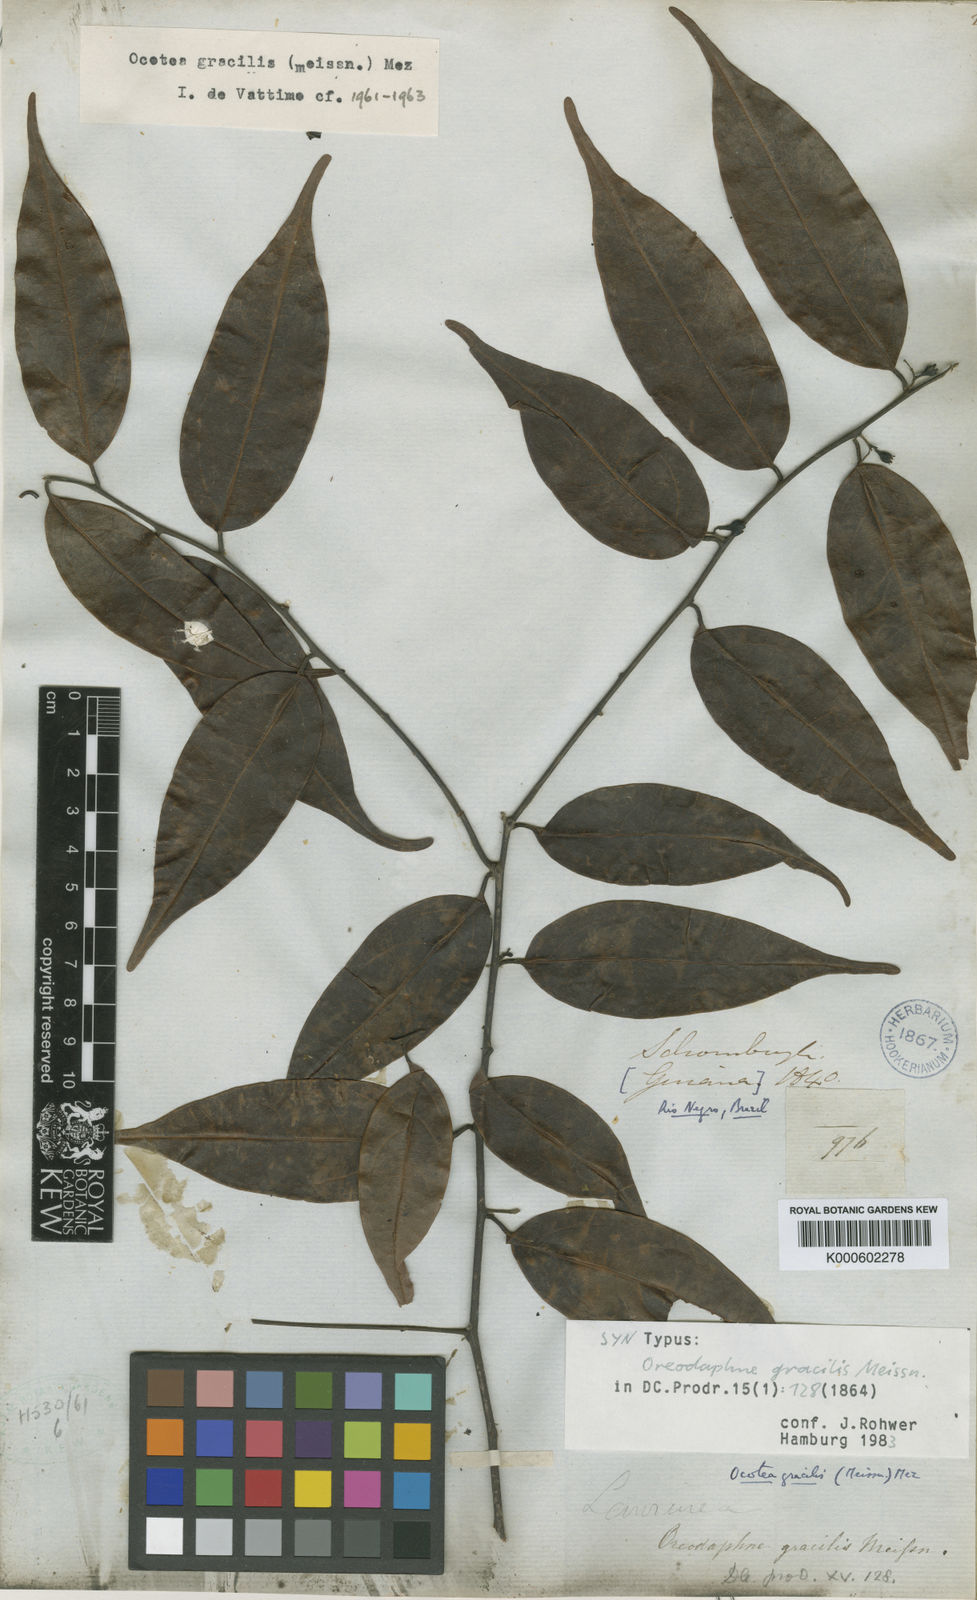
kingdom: Plantae
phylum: Tracheophyta
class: Magnoliopsida
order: Laurales
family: Lauraceae
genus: Ocotea
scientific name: Ocotea gracilis
